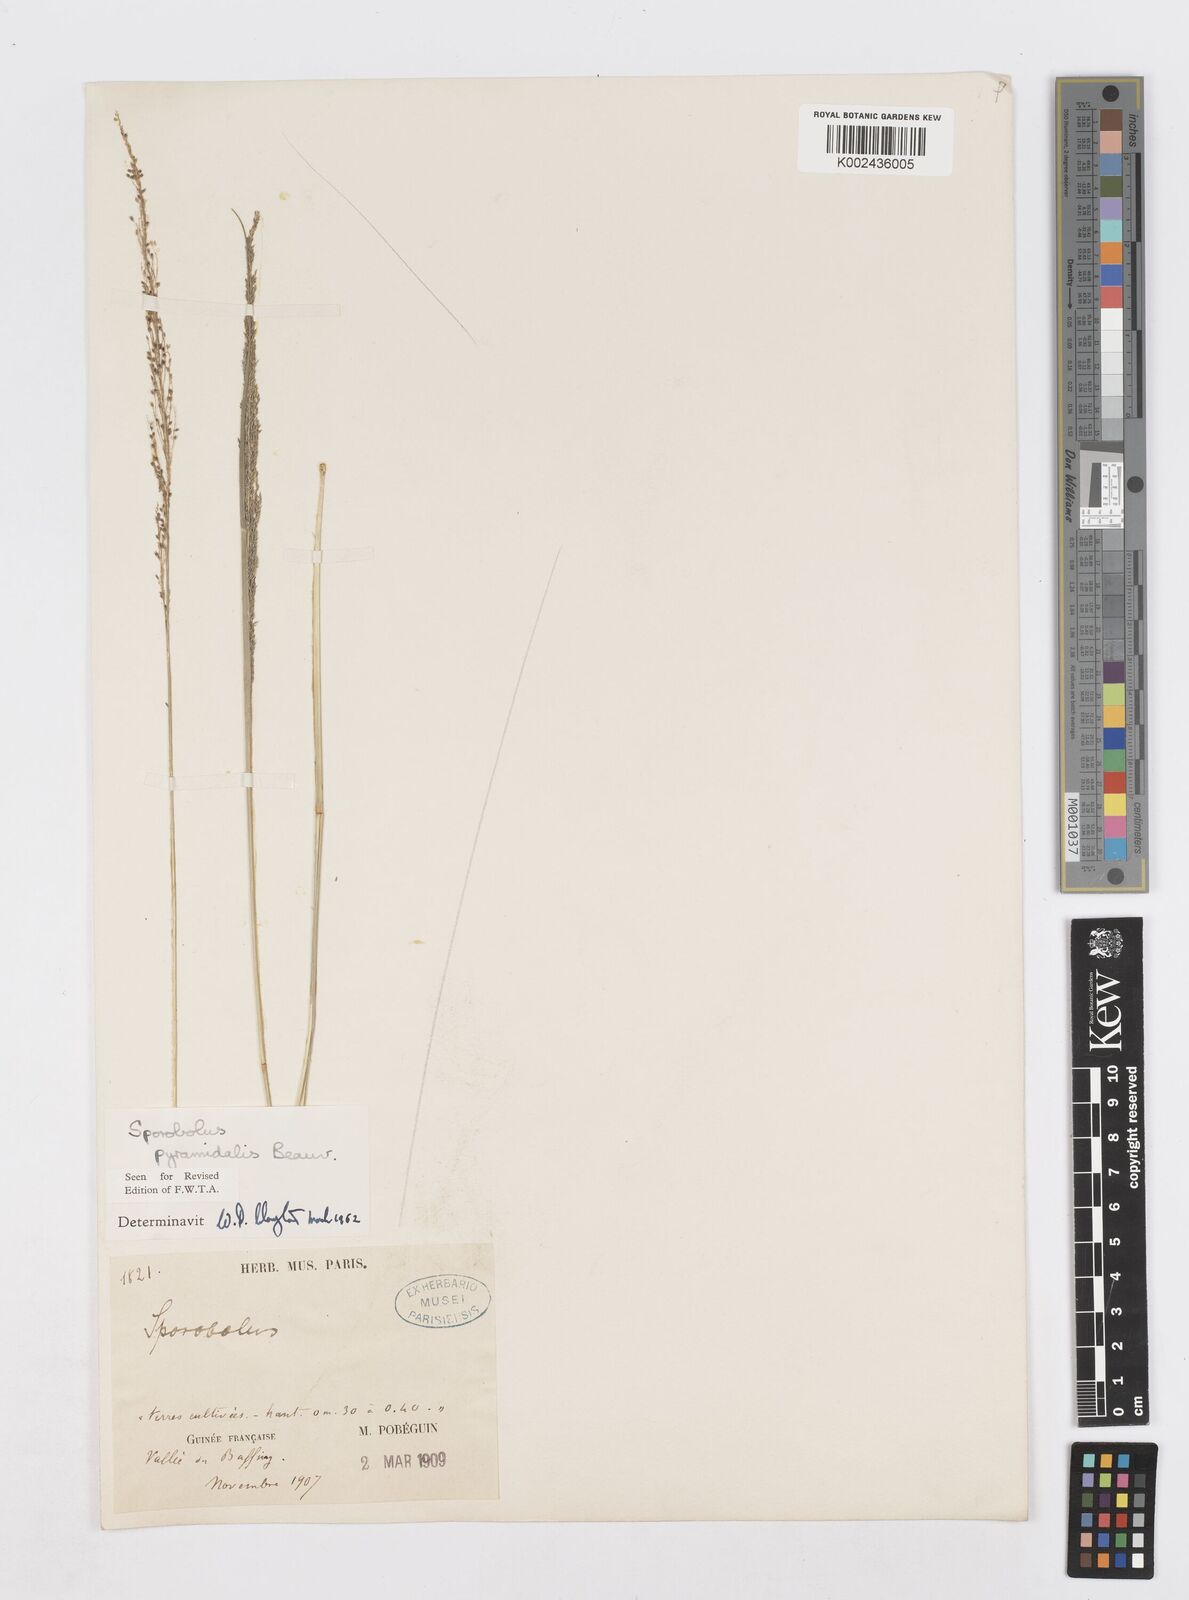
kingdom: Plantae
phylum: Tracheophyta
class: Liliopsida
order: Poales
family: Poaceae
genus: Sporobolus
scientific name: Sporobolus pyramidalis
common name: West indian dropseed
